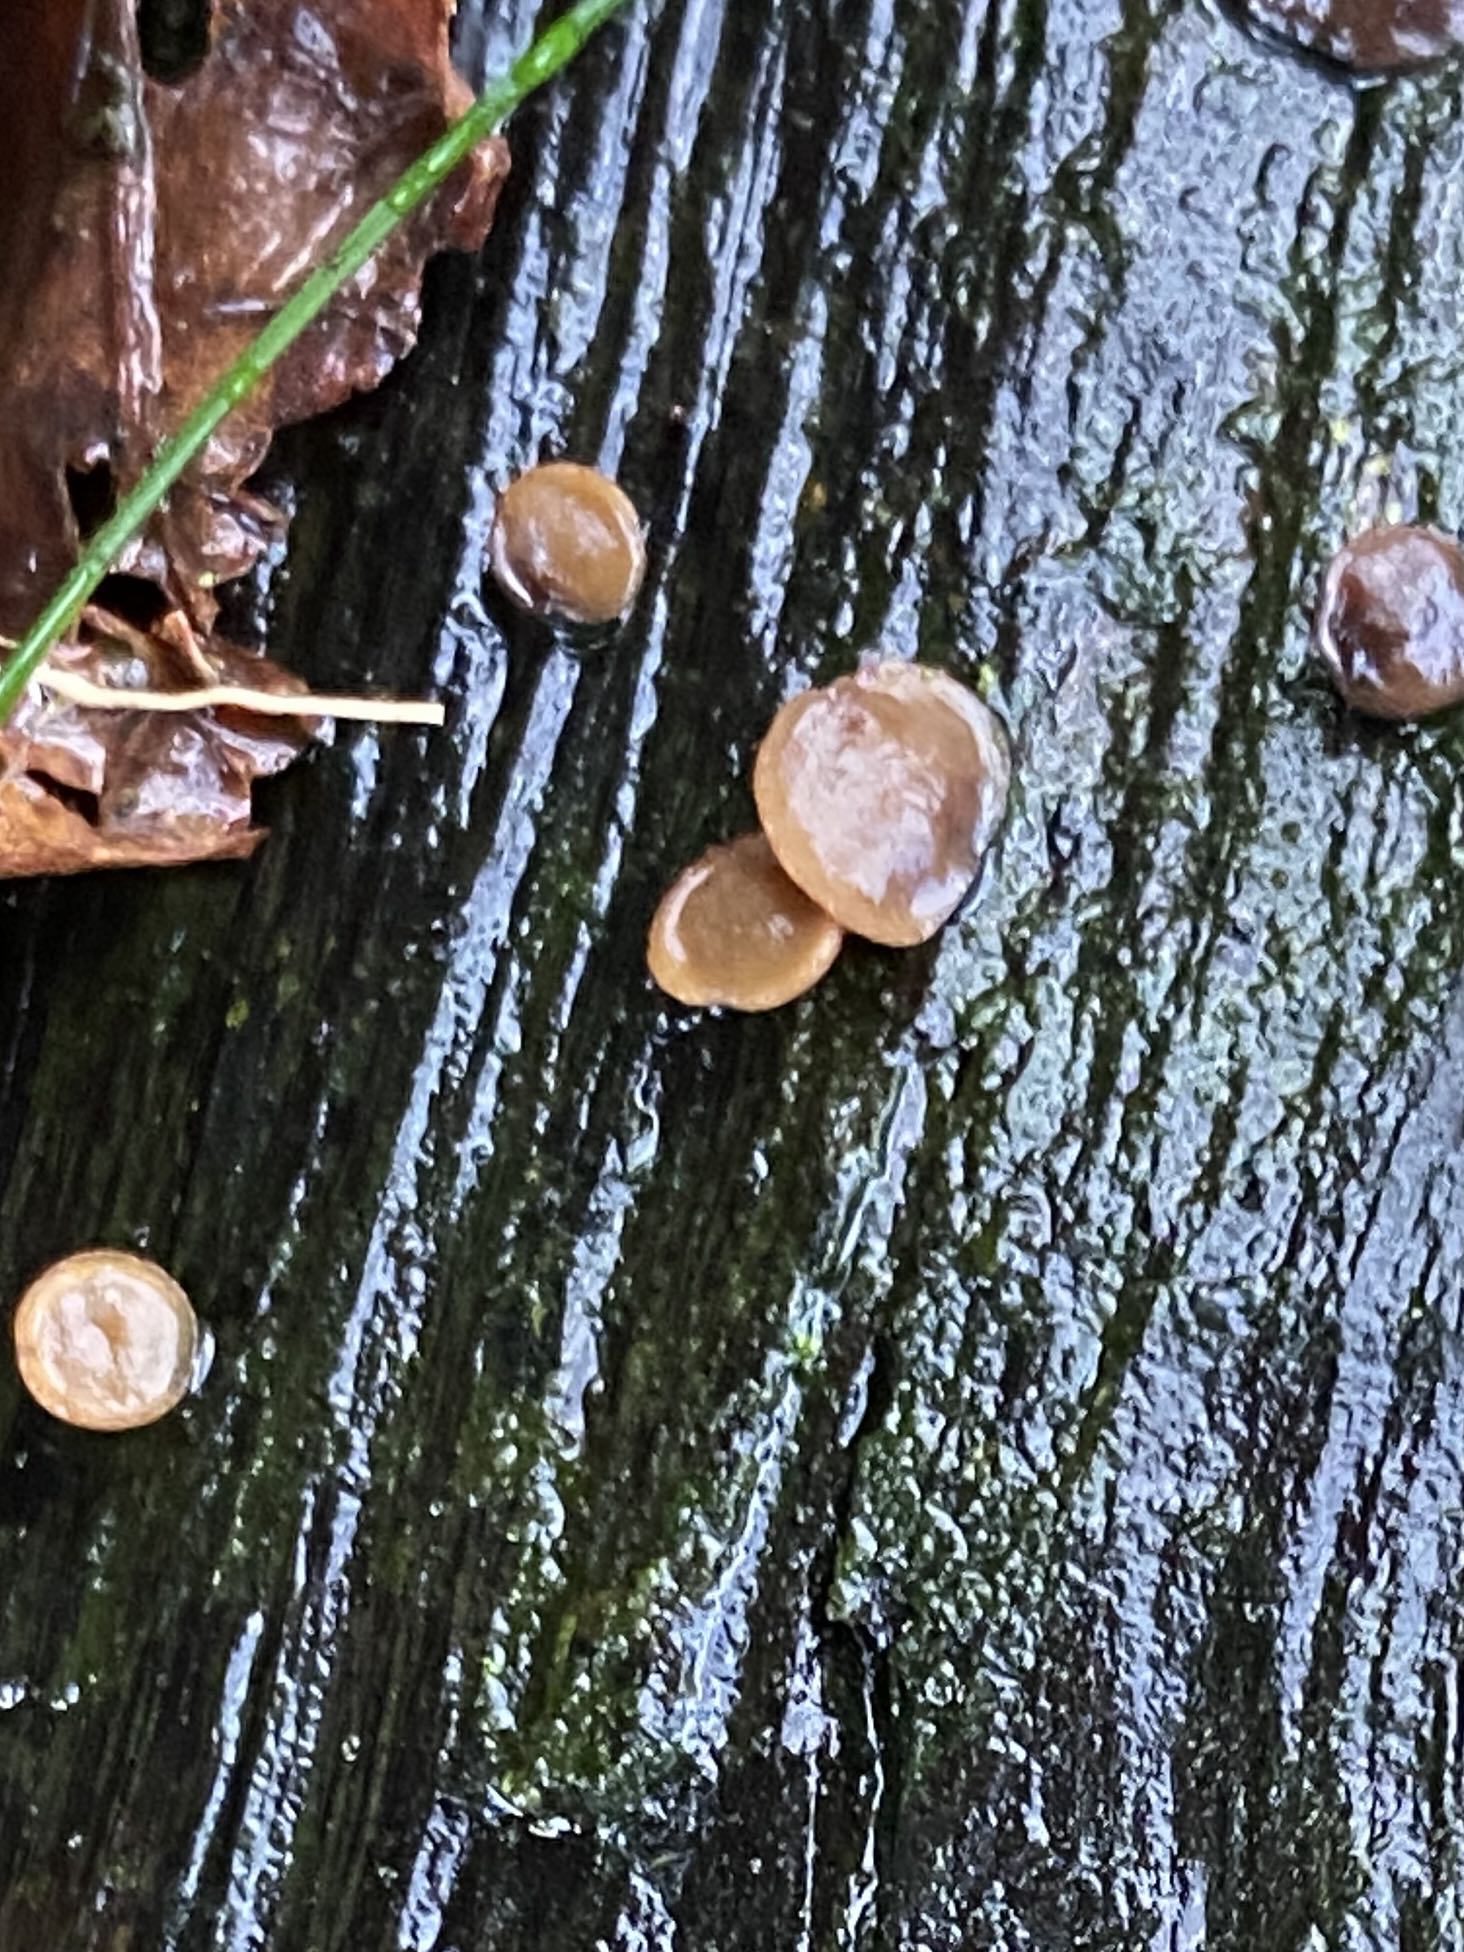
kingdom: Fungi
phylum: Ascomycota
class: Leotiomycetes
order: Helotiales
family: Rutstroemiaceae
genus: Rutstroemia
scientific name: Rutstroemia
